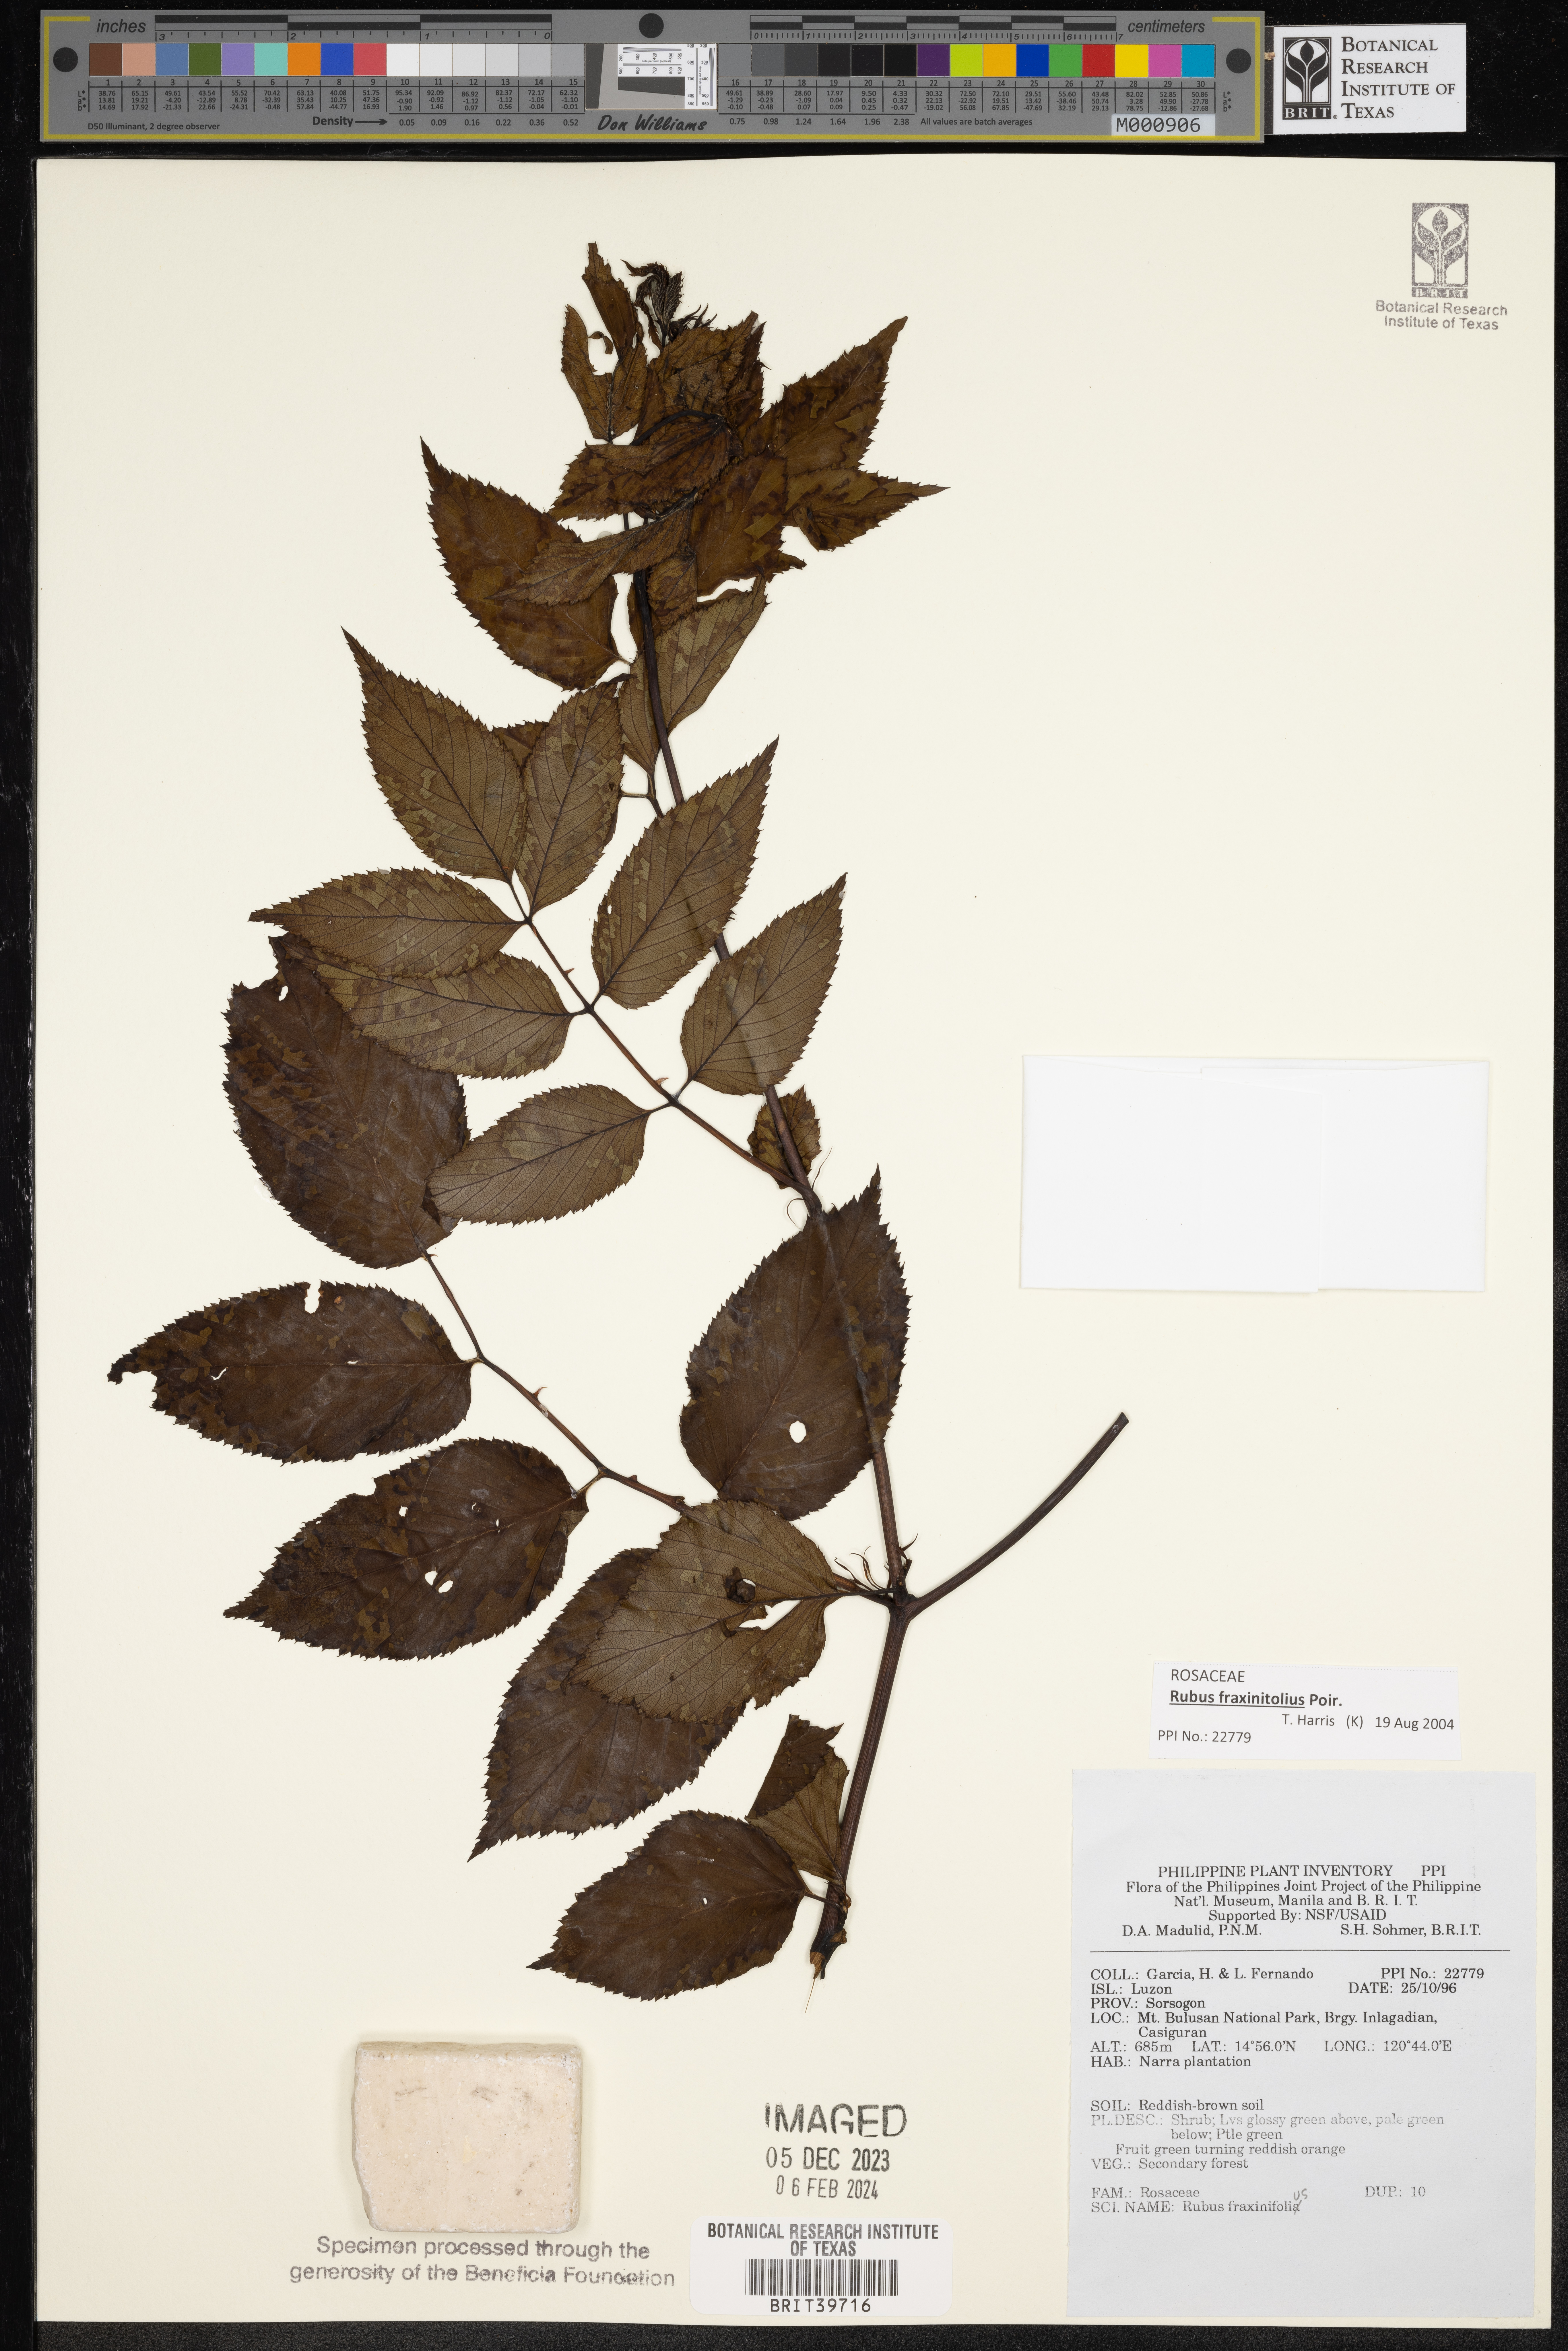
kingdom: Plantae
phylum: Tracheophyta
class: Magnoliopsida
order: Rosales
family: Rosaceae
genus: Rubus
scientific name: Rubus fraxinifolius
